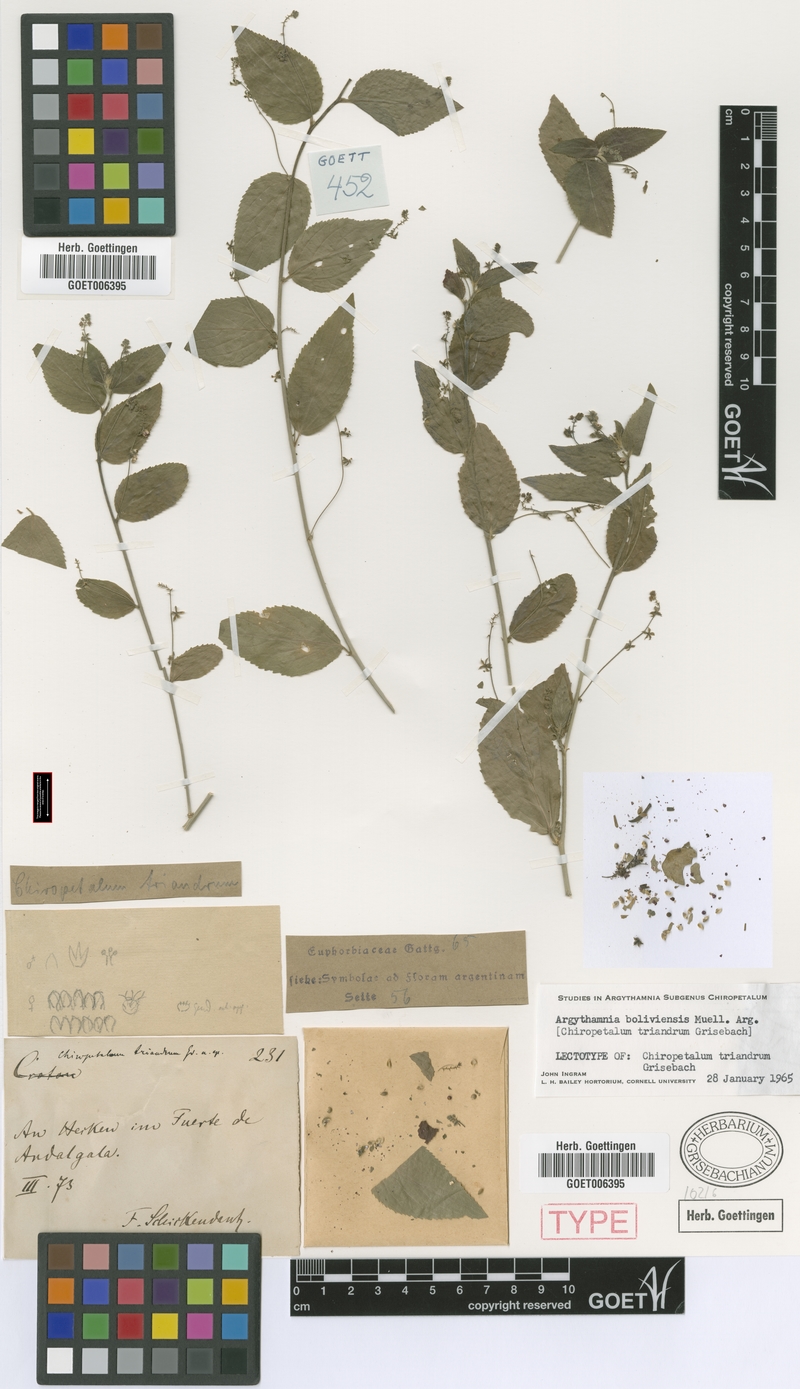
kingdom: Plantae
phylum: Tracheophyta
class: Magnoliopsida
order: Malpighiales
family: Euphorbiaceae
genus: Chiropetalum
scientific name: Chiropetalum boliviense
